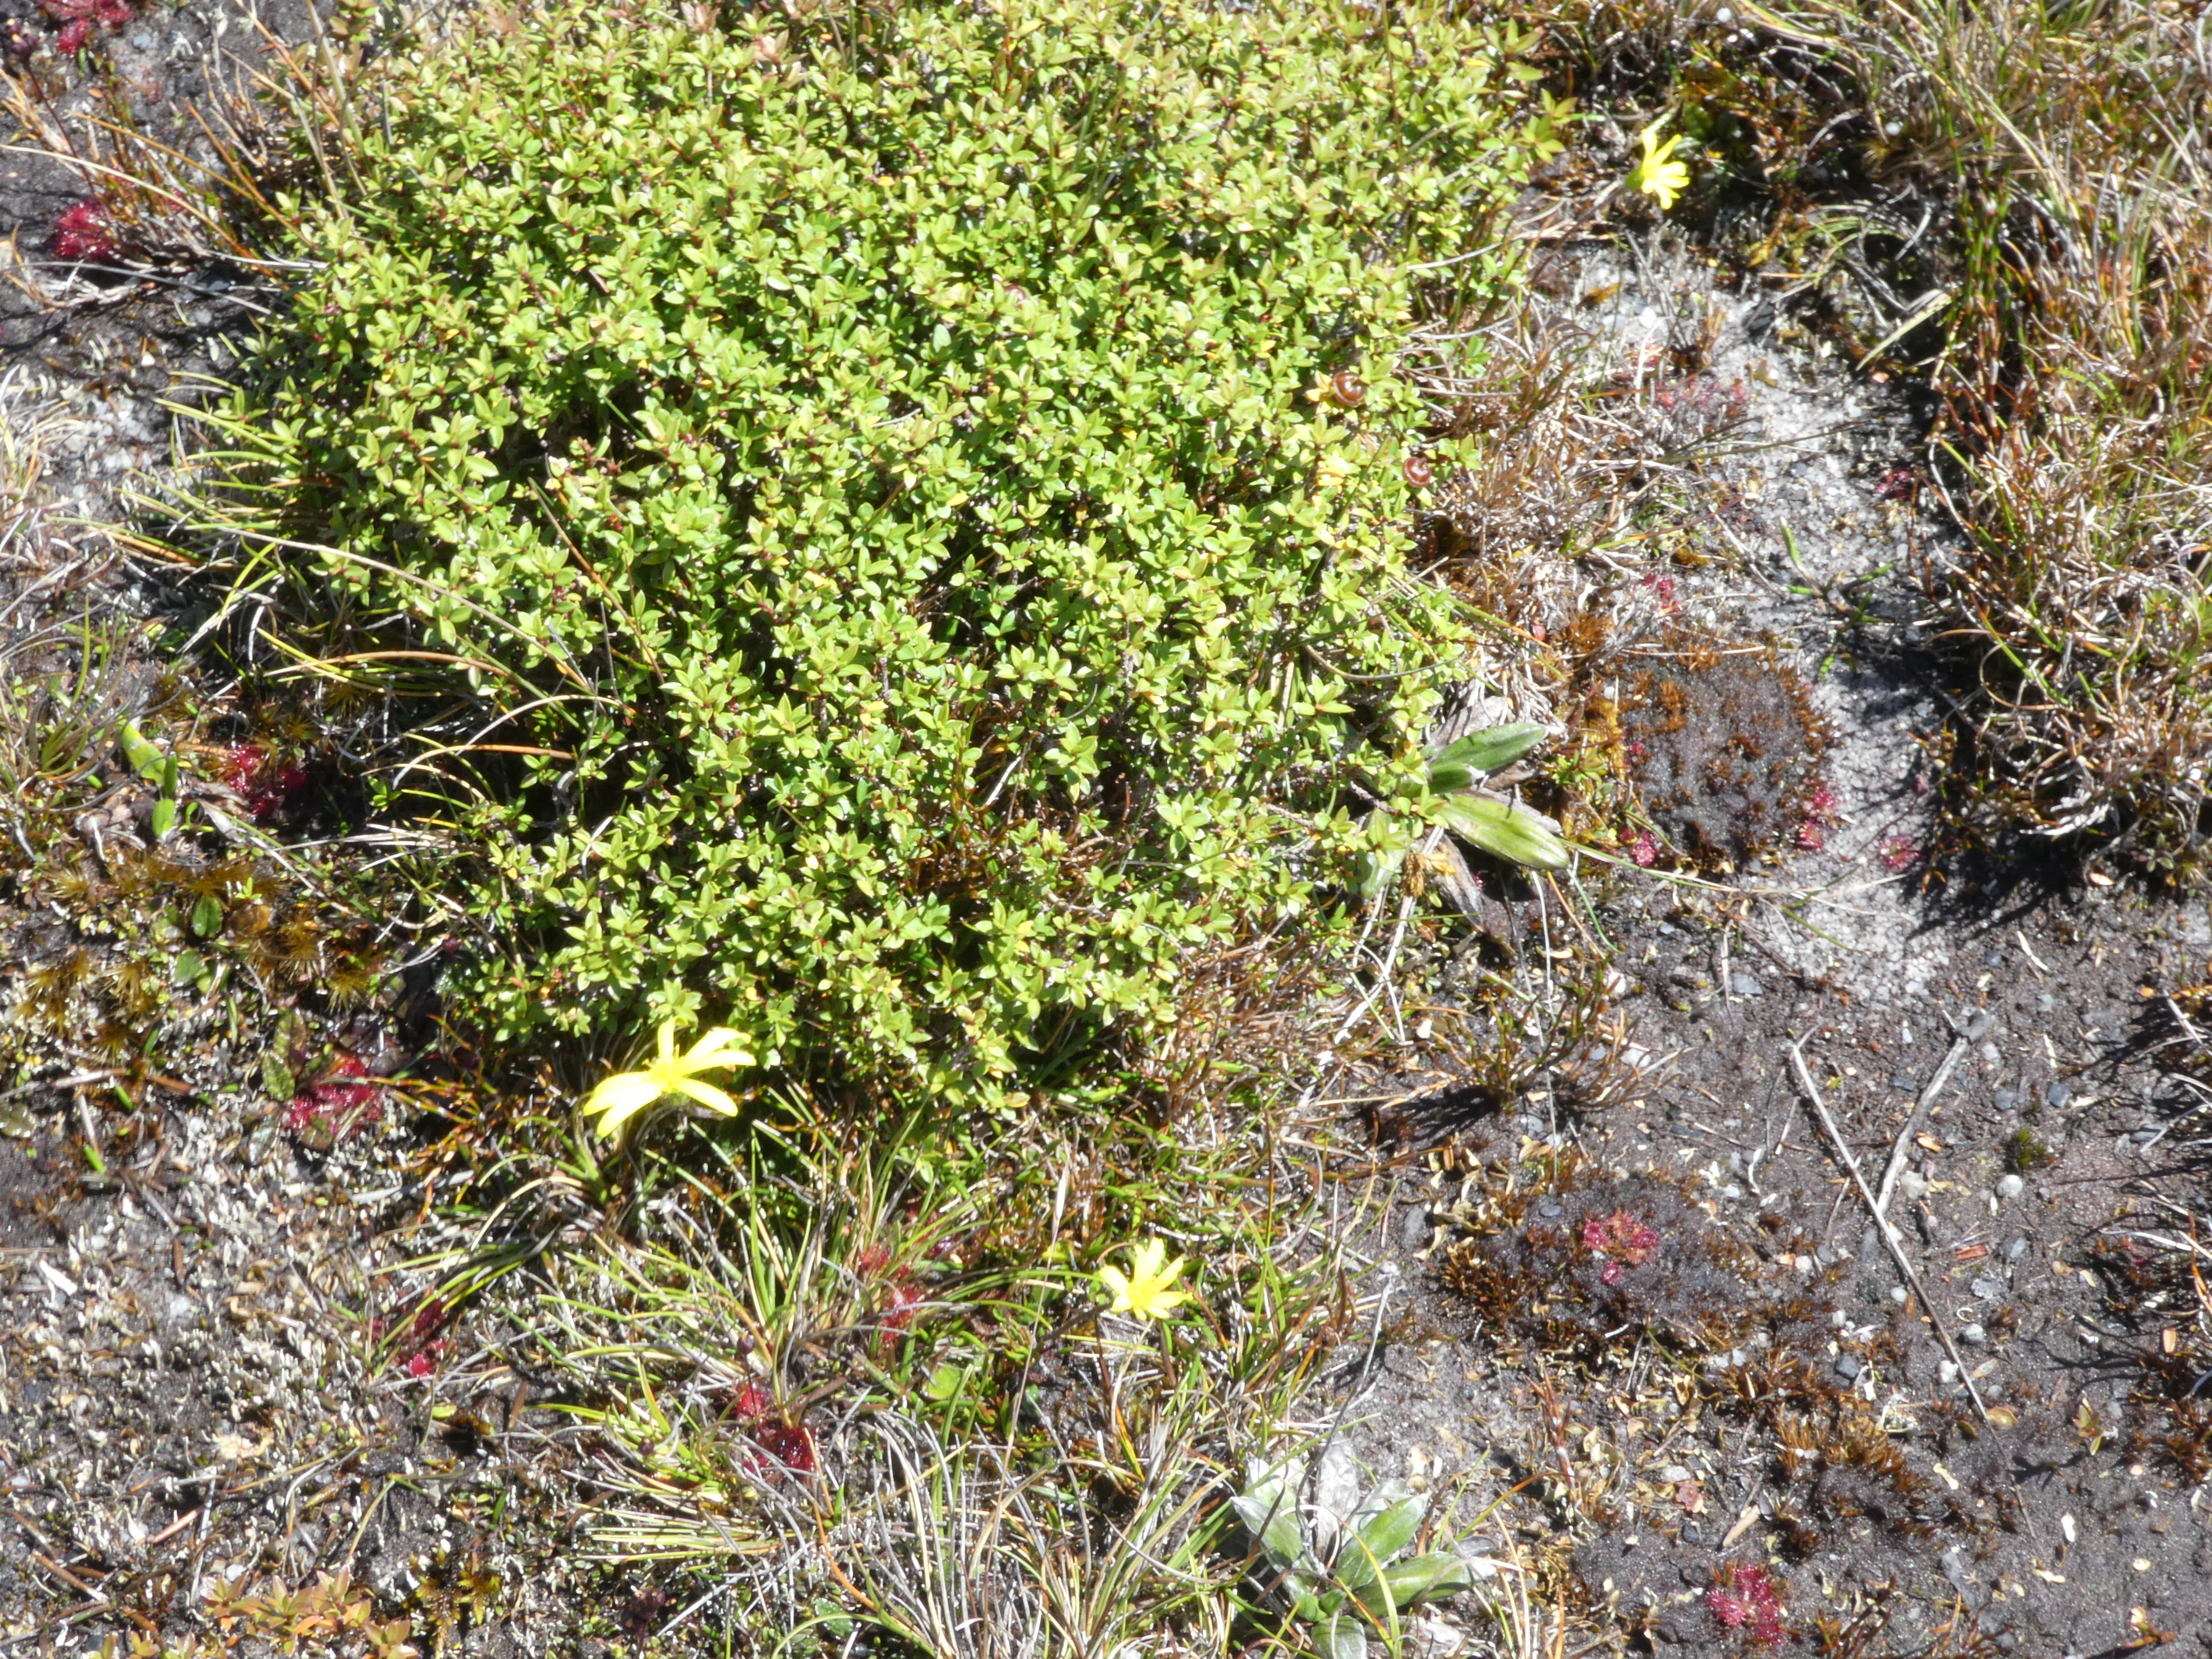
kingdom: Plantae
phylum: Tracheophyta
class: Magnoliopsida
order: Asterales
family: Asteraceae
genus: Brachyglottis
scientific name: Brachyglottis lagopus
